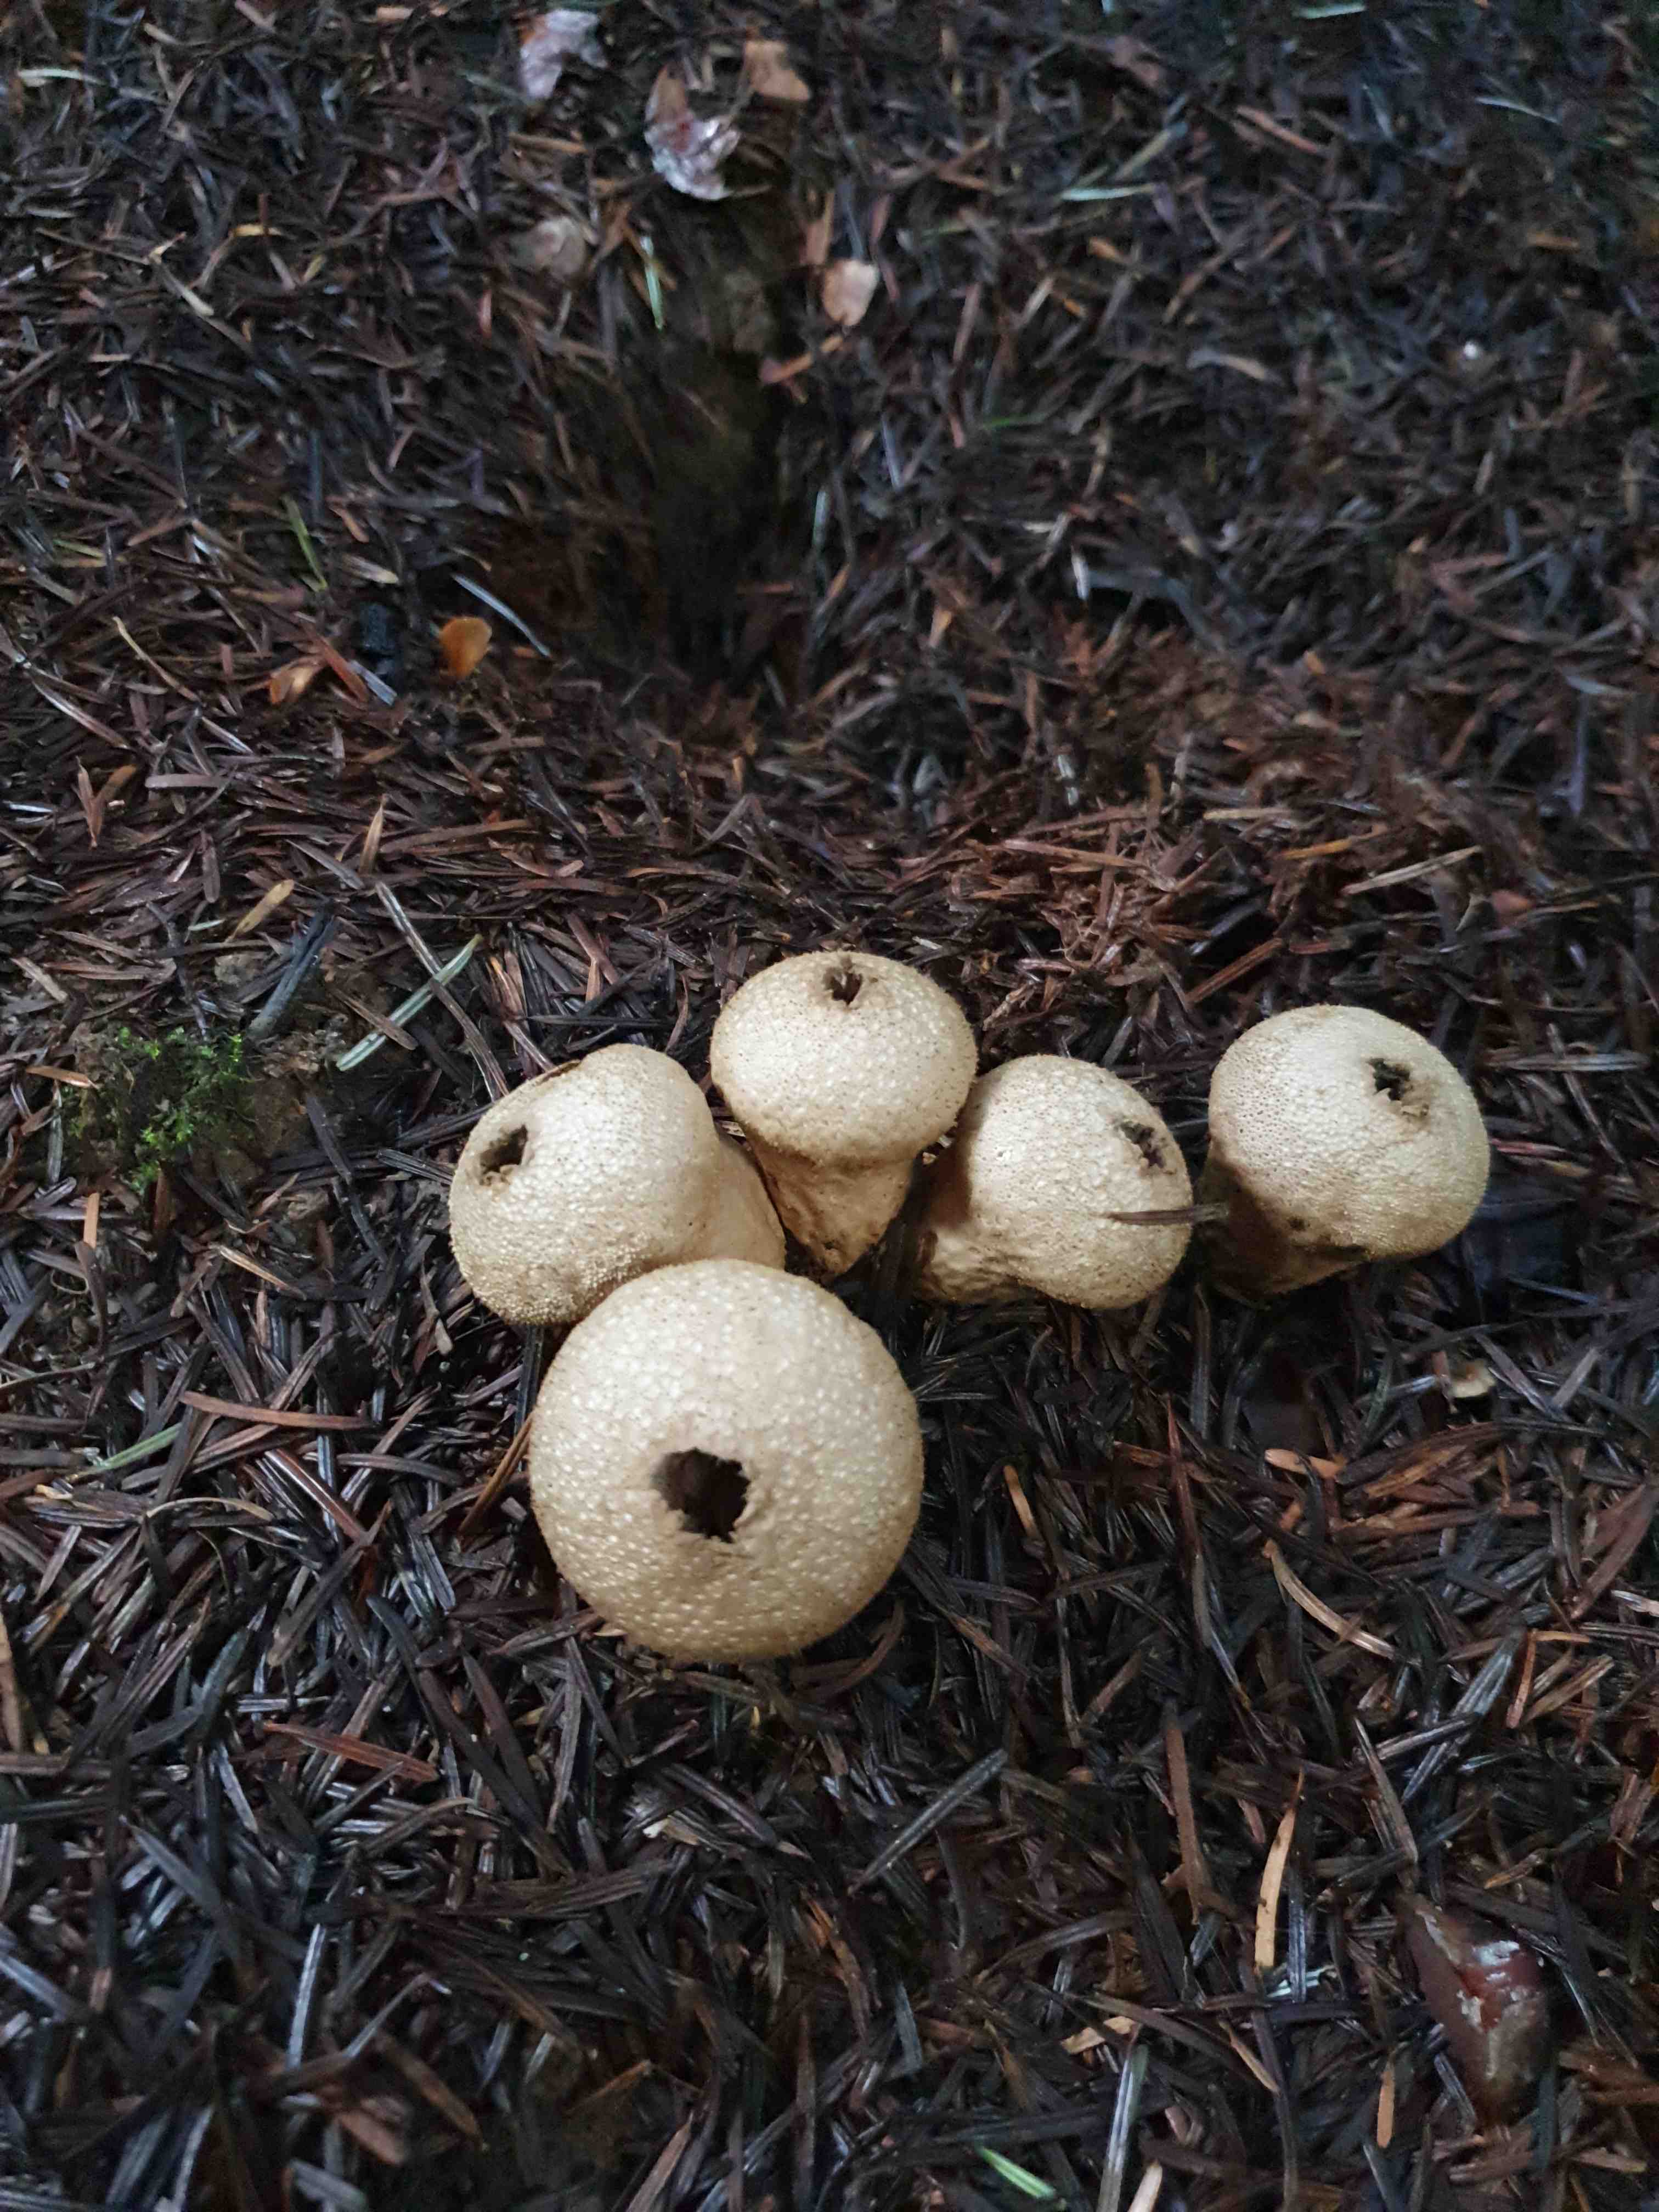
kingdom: Fungi
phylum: Basidiomycota
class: Agaricomycetes
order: Agaricales
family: Lycoperdaceae
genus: Lycoperdon
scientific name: Lycoperdon perlatum
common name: krystal-støvbold
